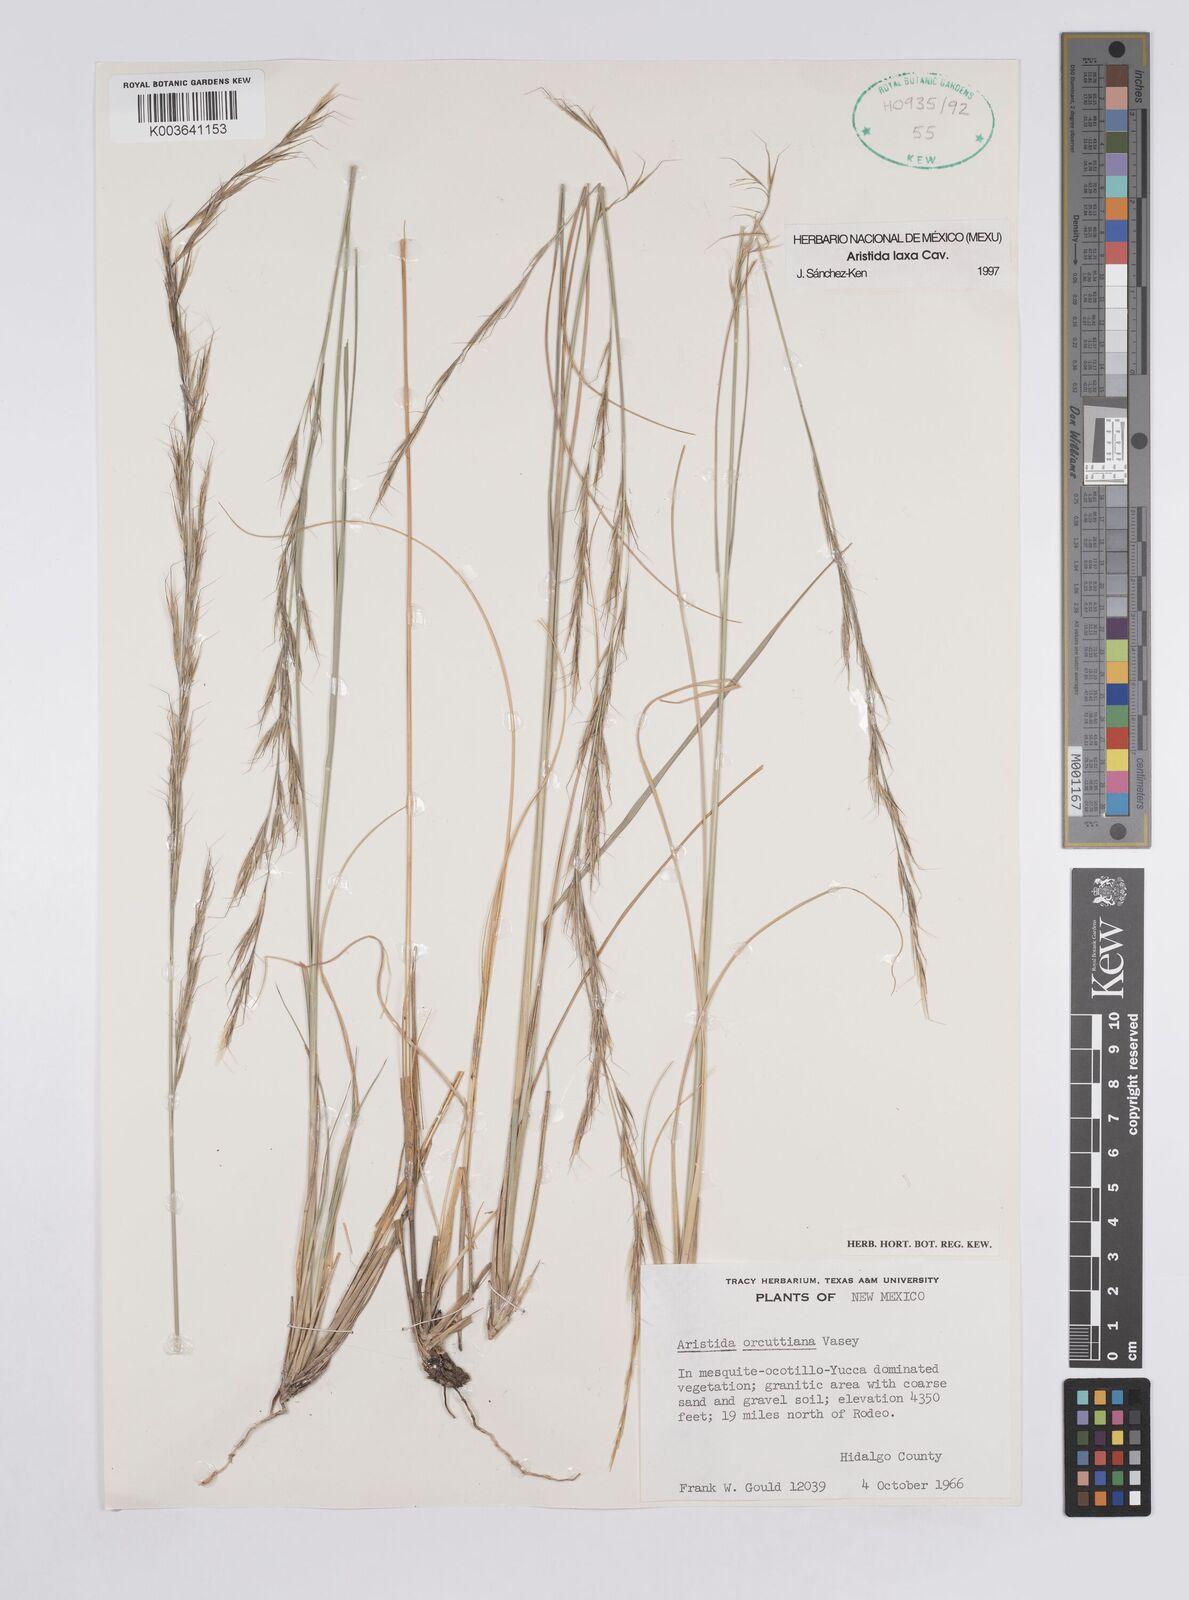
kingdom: Plantae
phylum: Tracheophyta
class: Liliopsida
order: Poales
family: Poaceae
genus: Aristida
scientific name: Aristida laxa
